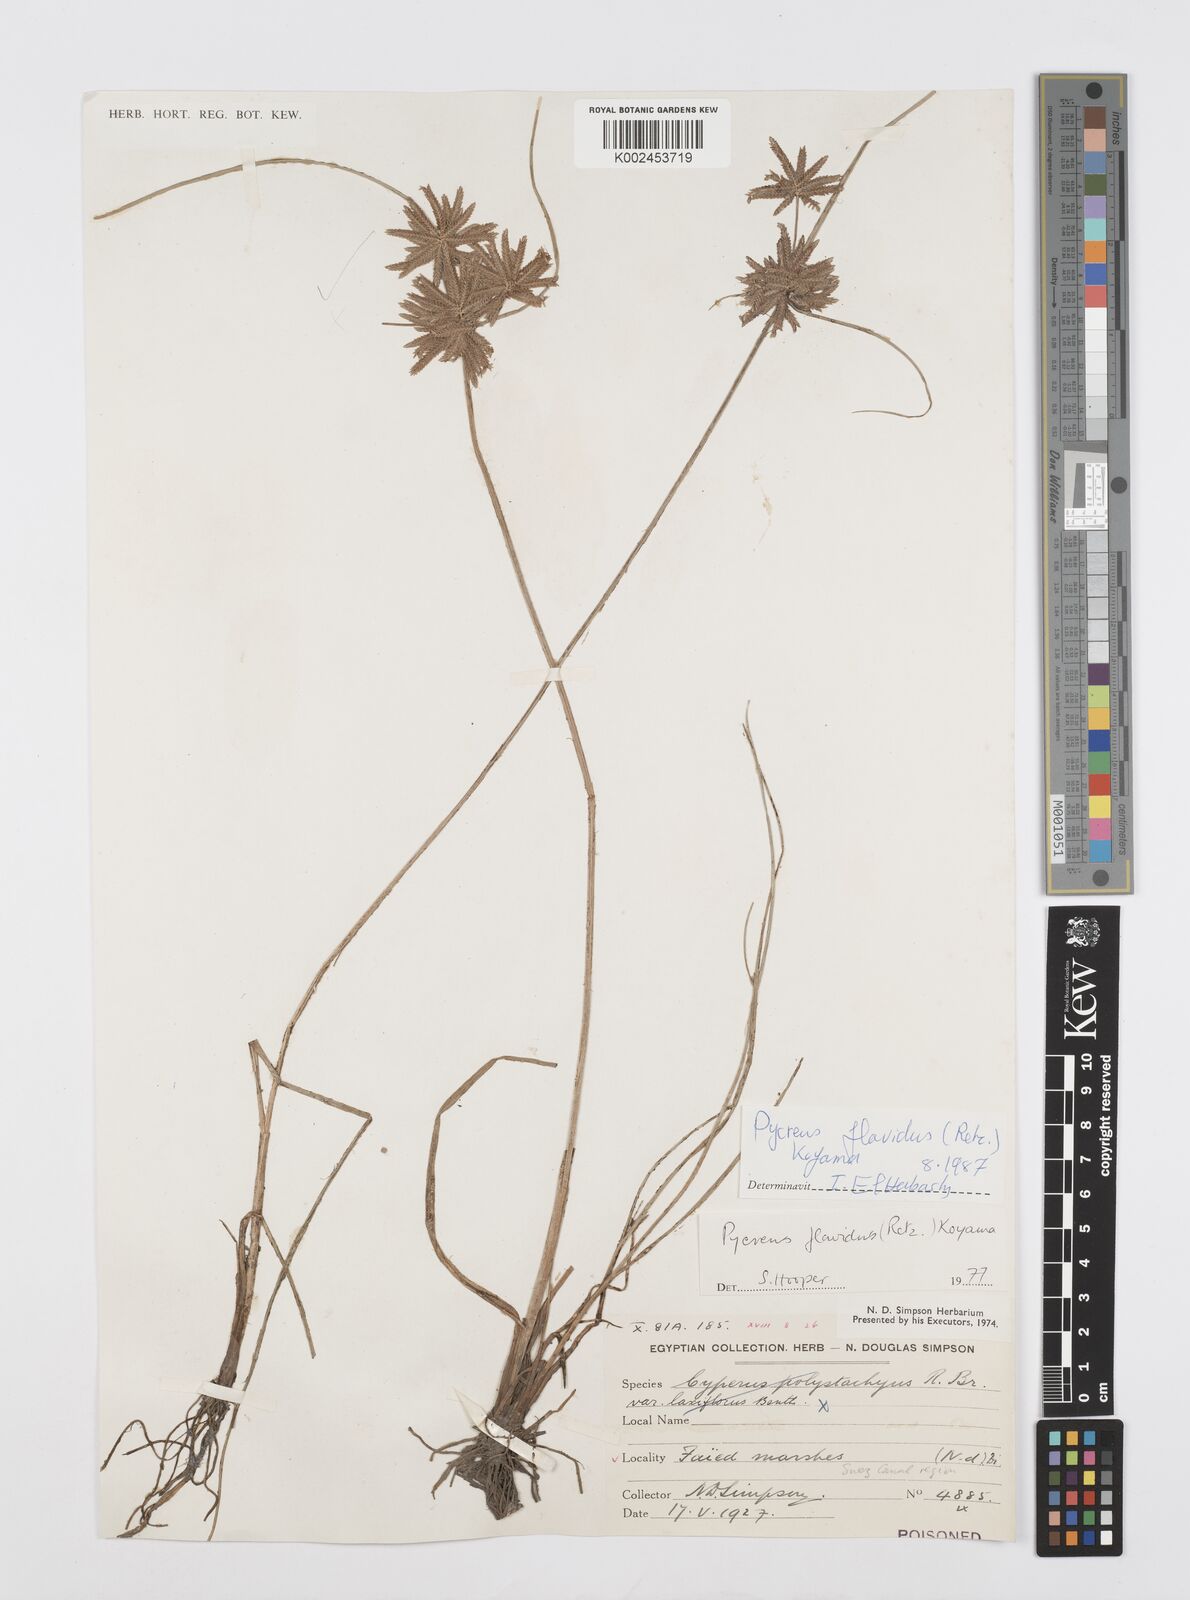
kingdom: Plantae
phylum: Tracheophyta
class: Liliopsida
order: Poales
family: Cyperaceae
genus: Cyperus
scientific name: Cyperus flavidus
